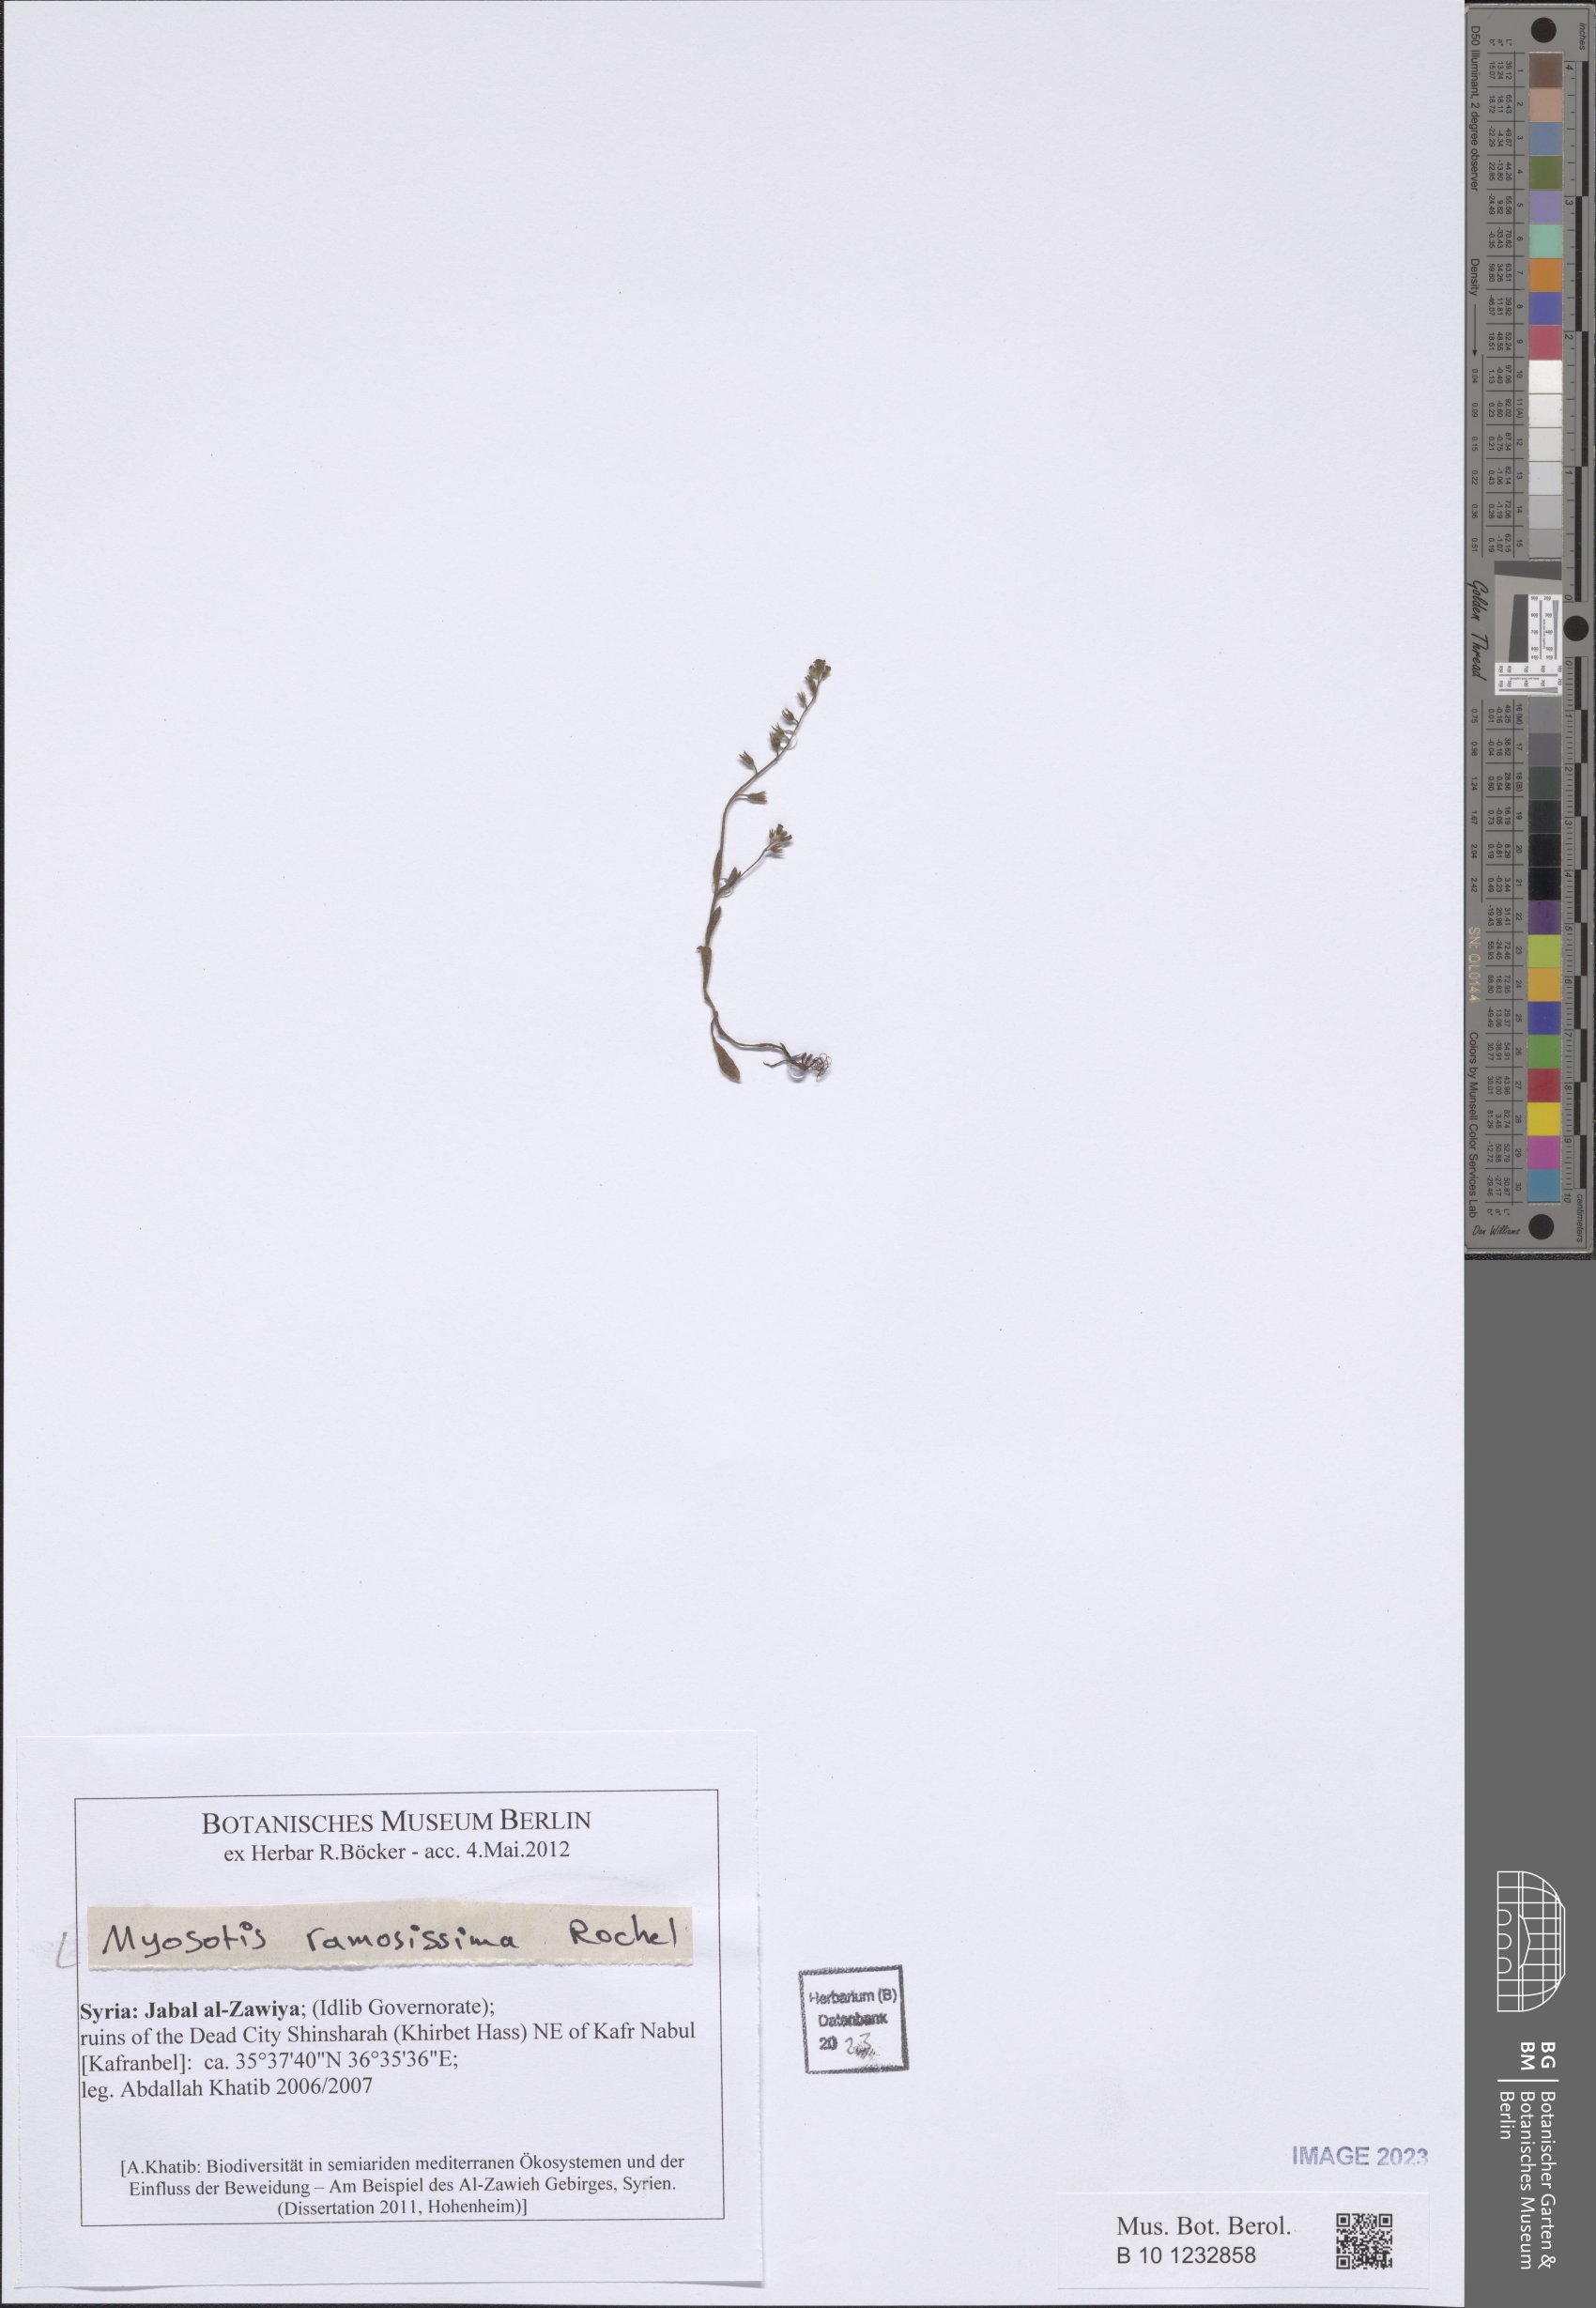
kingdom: Plantae
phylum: Tracheophyta
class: Magnoliopsida
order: Boraginales
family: Boraginaceae
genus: Myosotis
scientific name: Myosotis ramosissima
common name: Early forget-me-not
